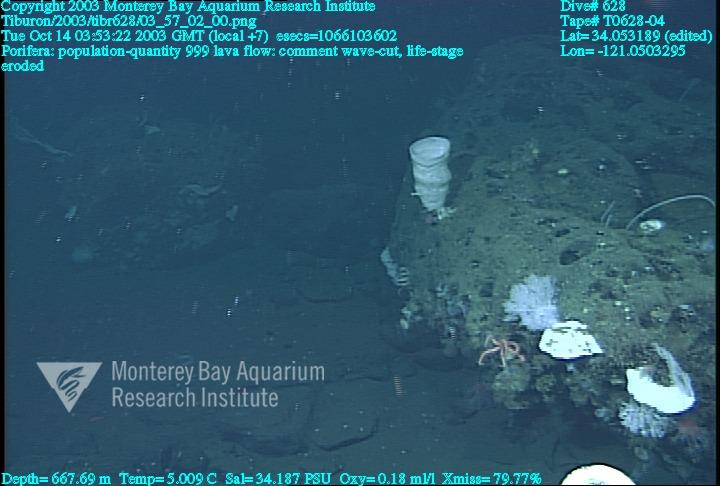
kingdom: Animalia
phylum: Porifera
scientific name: Porifera
